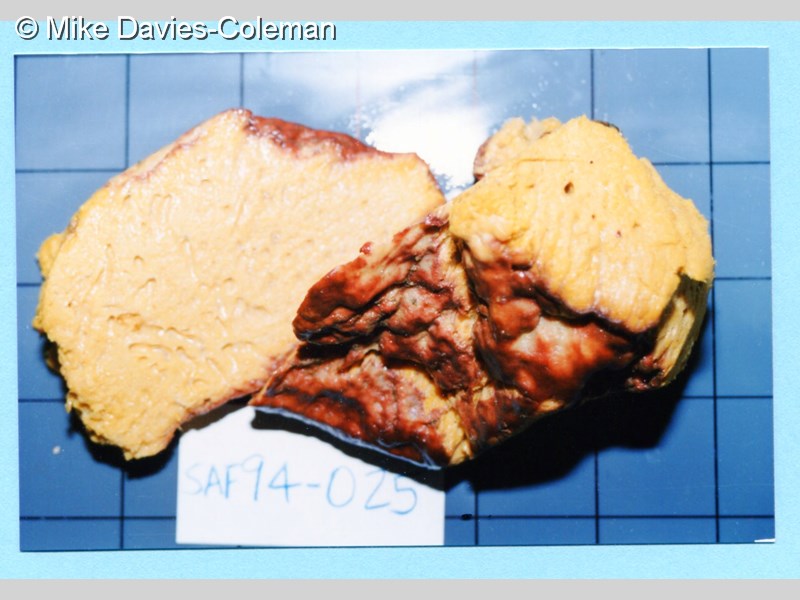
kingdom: Animalia
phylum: Porifera
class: Demospongiae
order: Clionaida
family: Clionaidae
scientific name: Clionaidae
